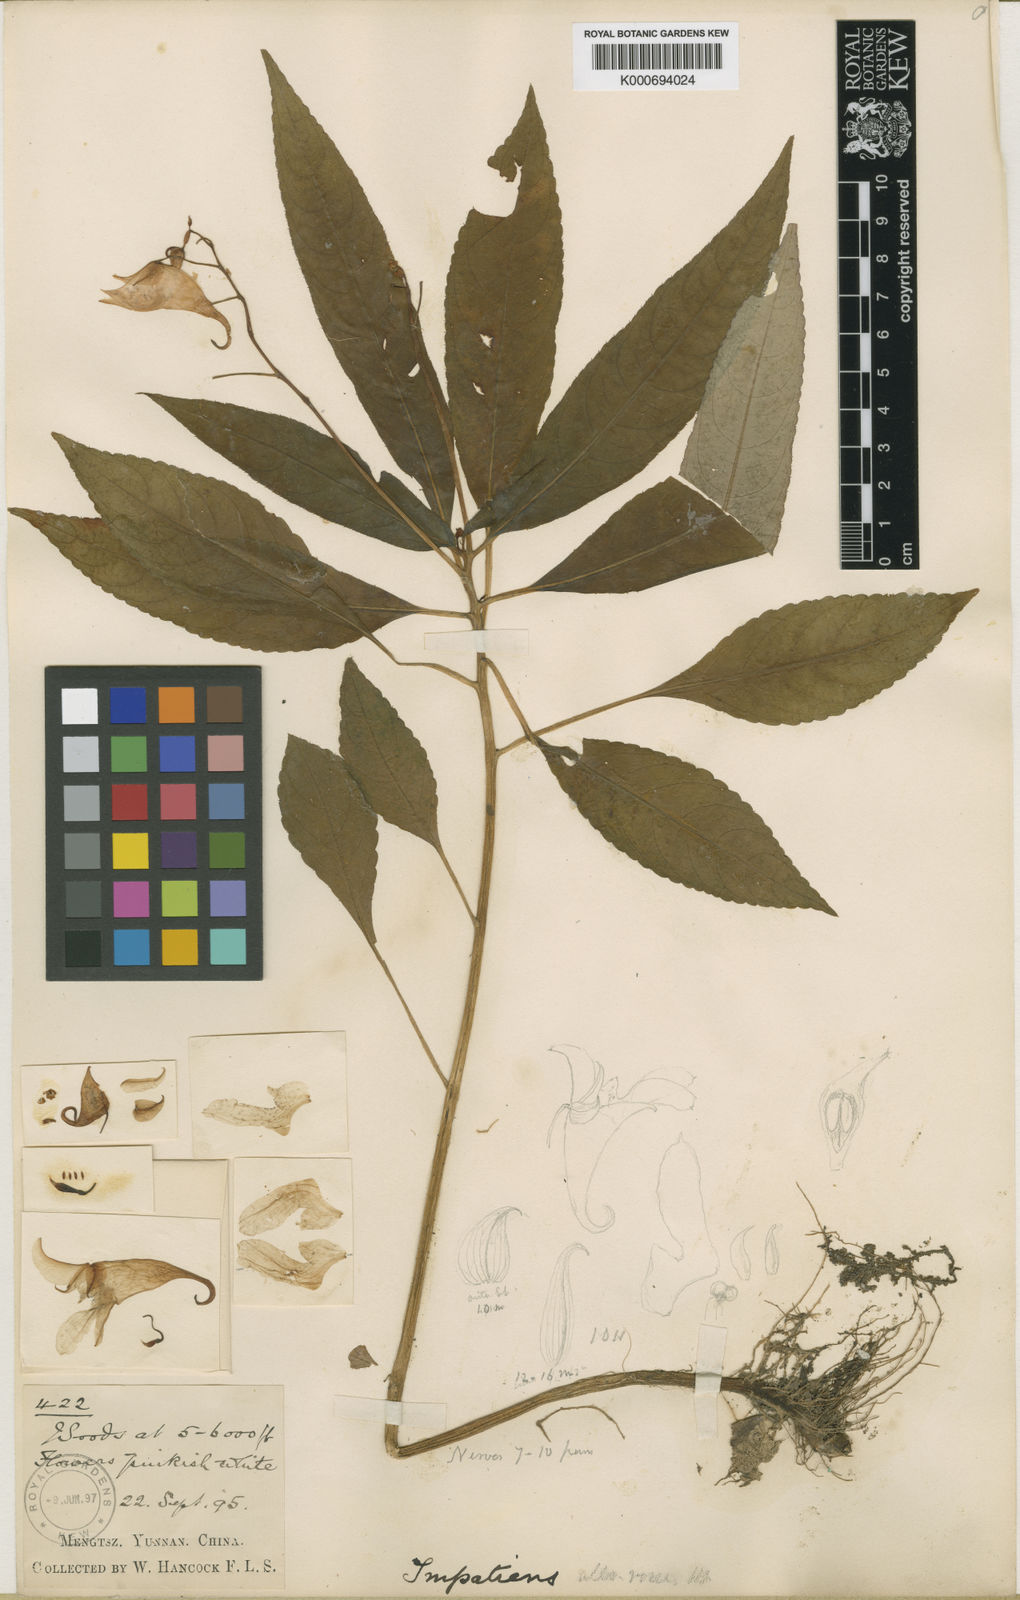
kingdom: Plantae
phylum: Tracheophyta
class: Magnoliopsida
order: Ericales
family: Balsaminaceae
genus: Impatiens
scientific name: Impatiens alborosea
